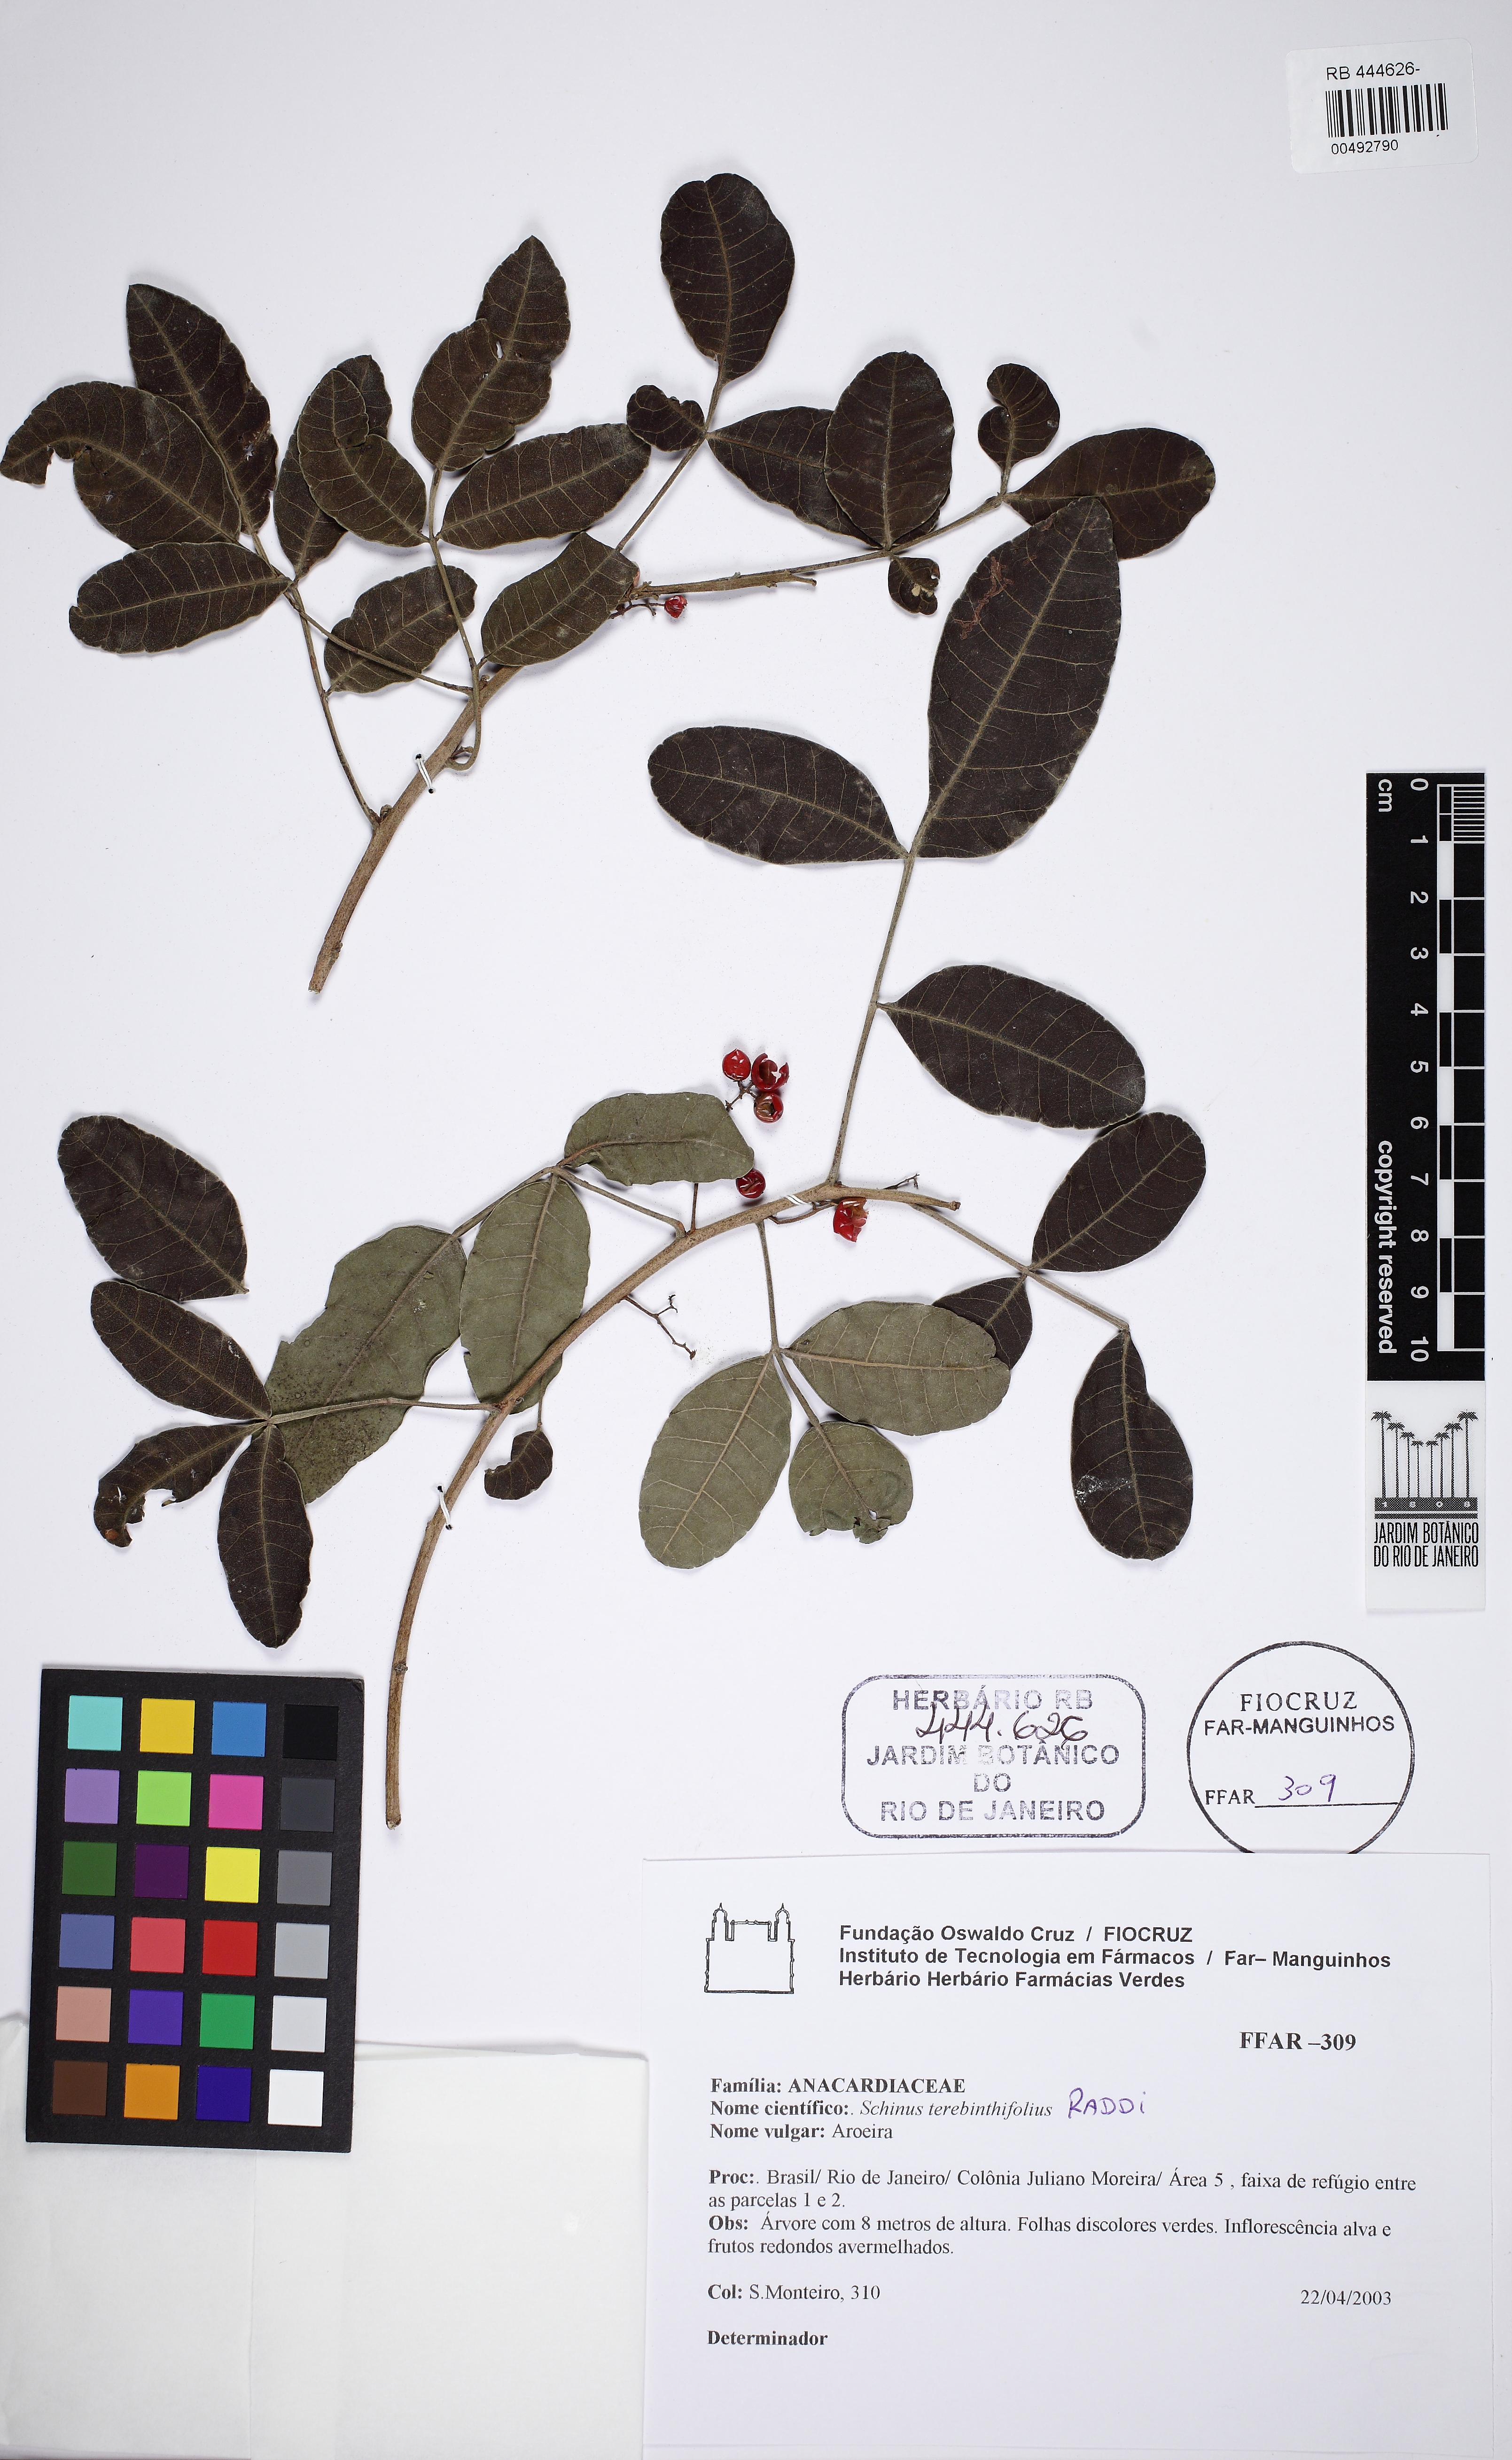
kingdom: Plantae
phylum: Tracheophyta
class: Magnoliopsida
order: Sapindales
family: Anacardiaceae
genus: Schinus
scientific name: Schinus terebinthifolia
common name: Brazilian peppertree
